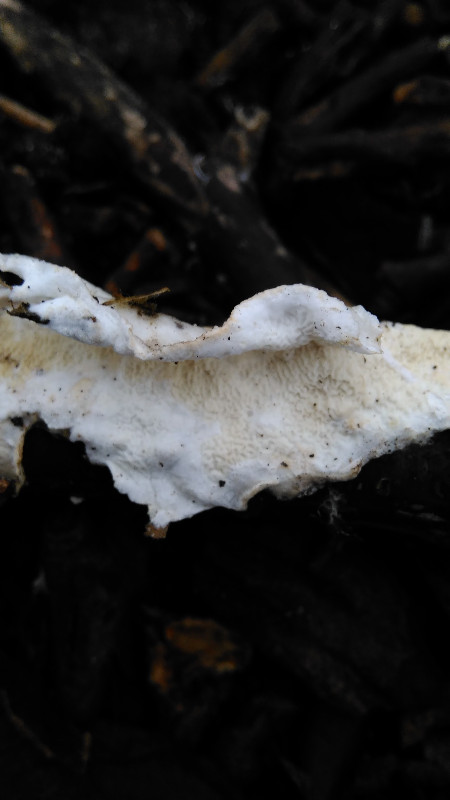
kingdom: Fungi
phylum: Basidiomycota
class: Agaricomycetes
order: Polyporales
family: Irpicaceae
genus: Byssomerulius
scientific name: Byssomerulius corium
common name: læder-åresvamp
